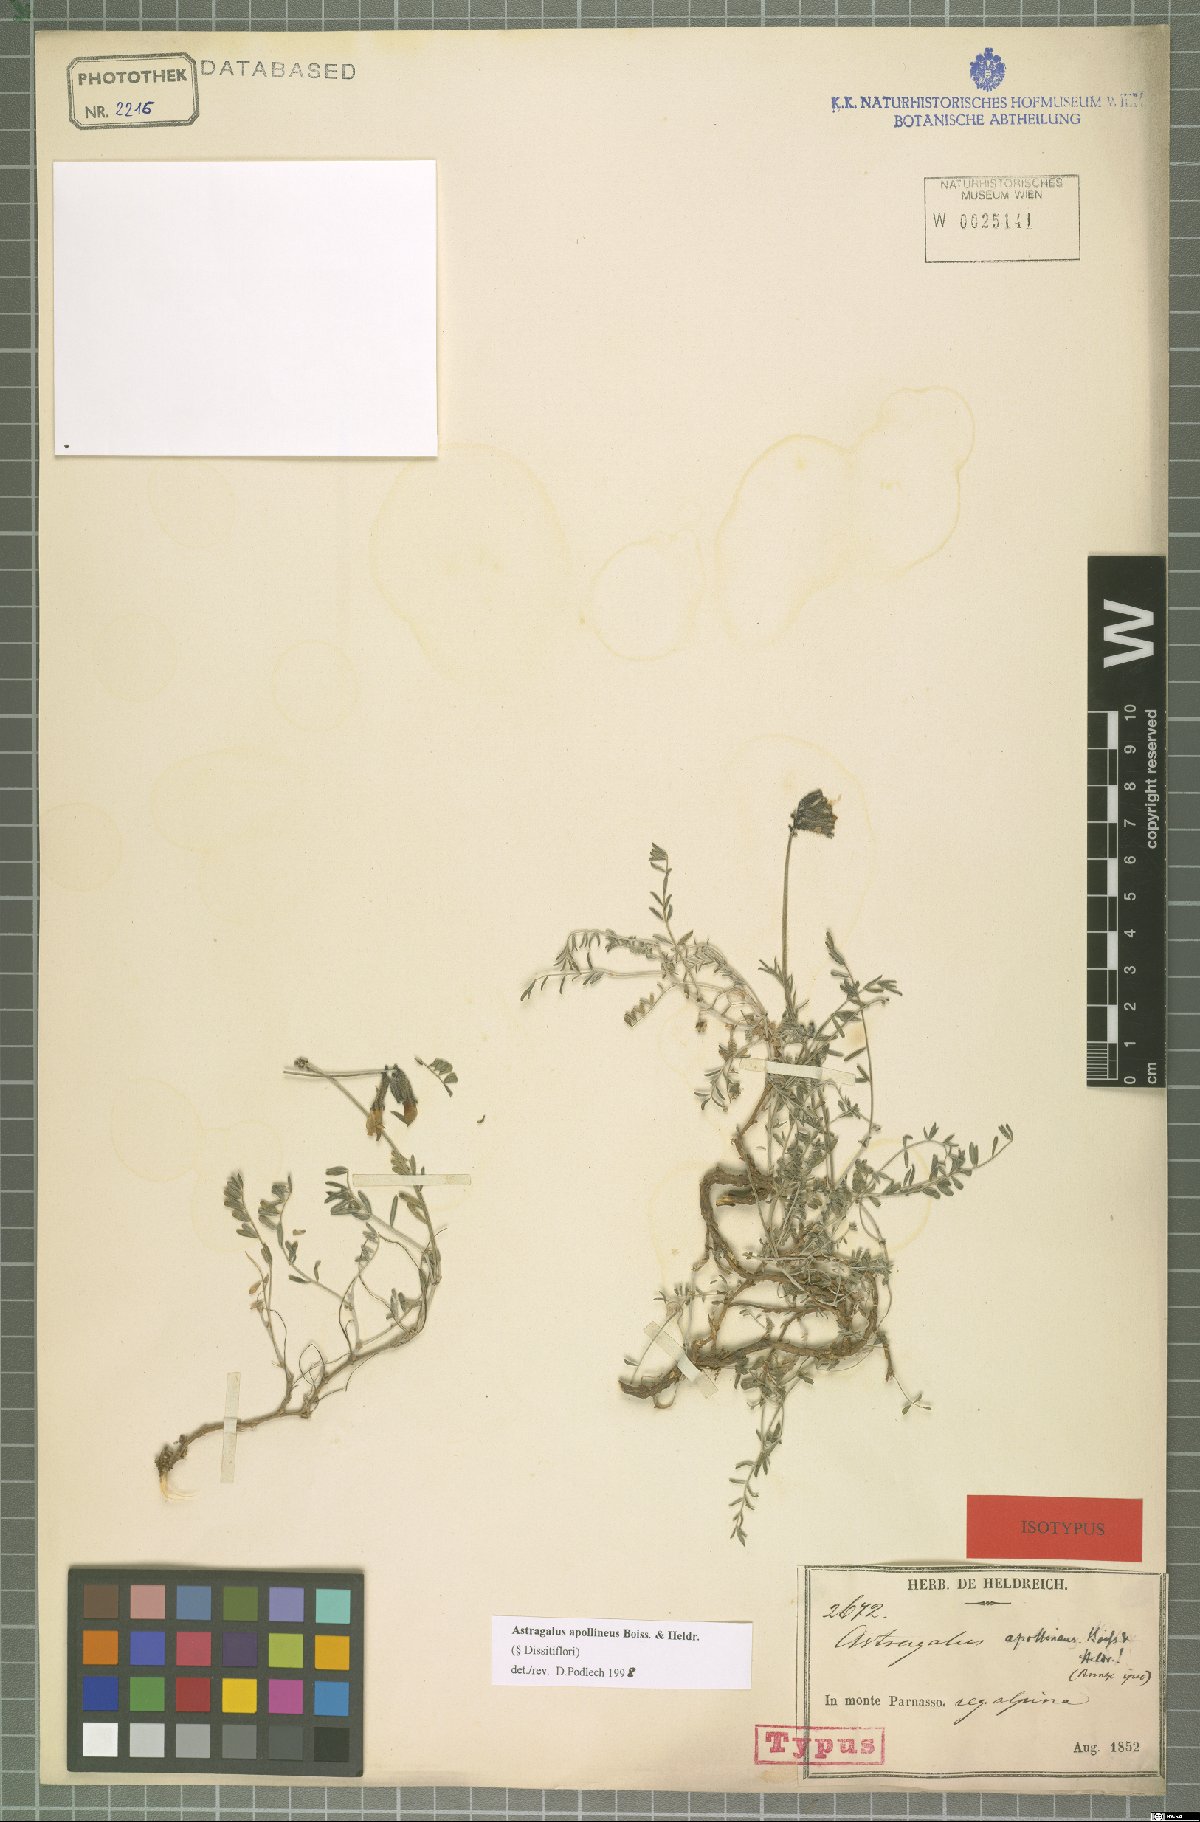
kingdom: Plantae
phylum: Tracheophyta
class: Magnoliopsida
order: Fabales
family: Fabaceae
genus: Astragalus
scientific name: Astragalus apollineus
